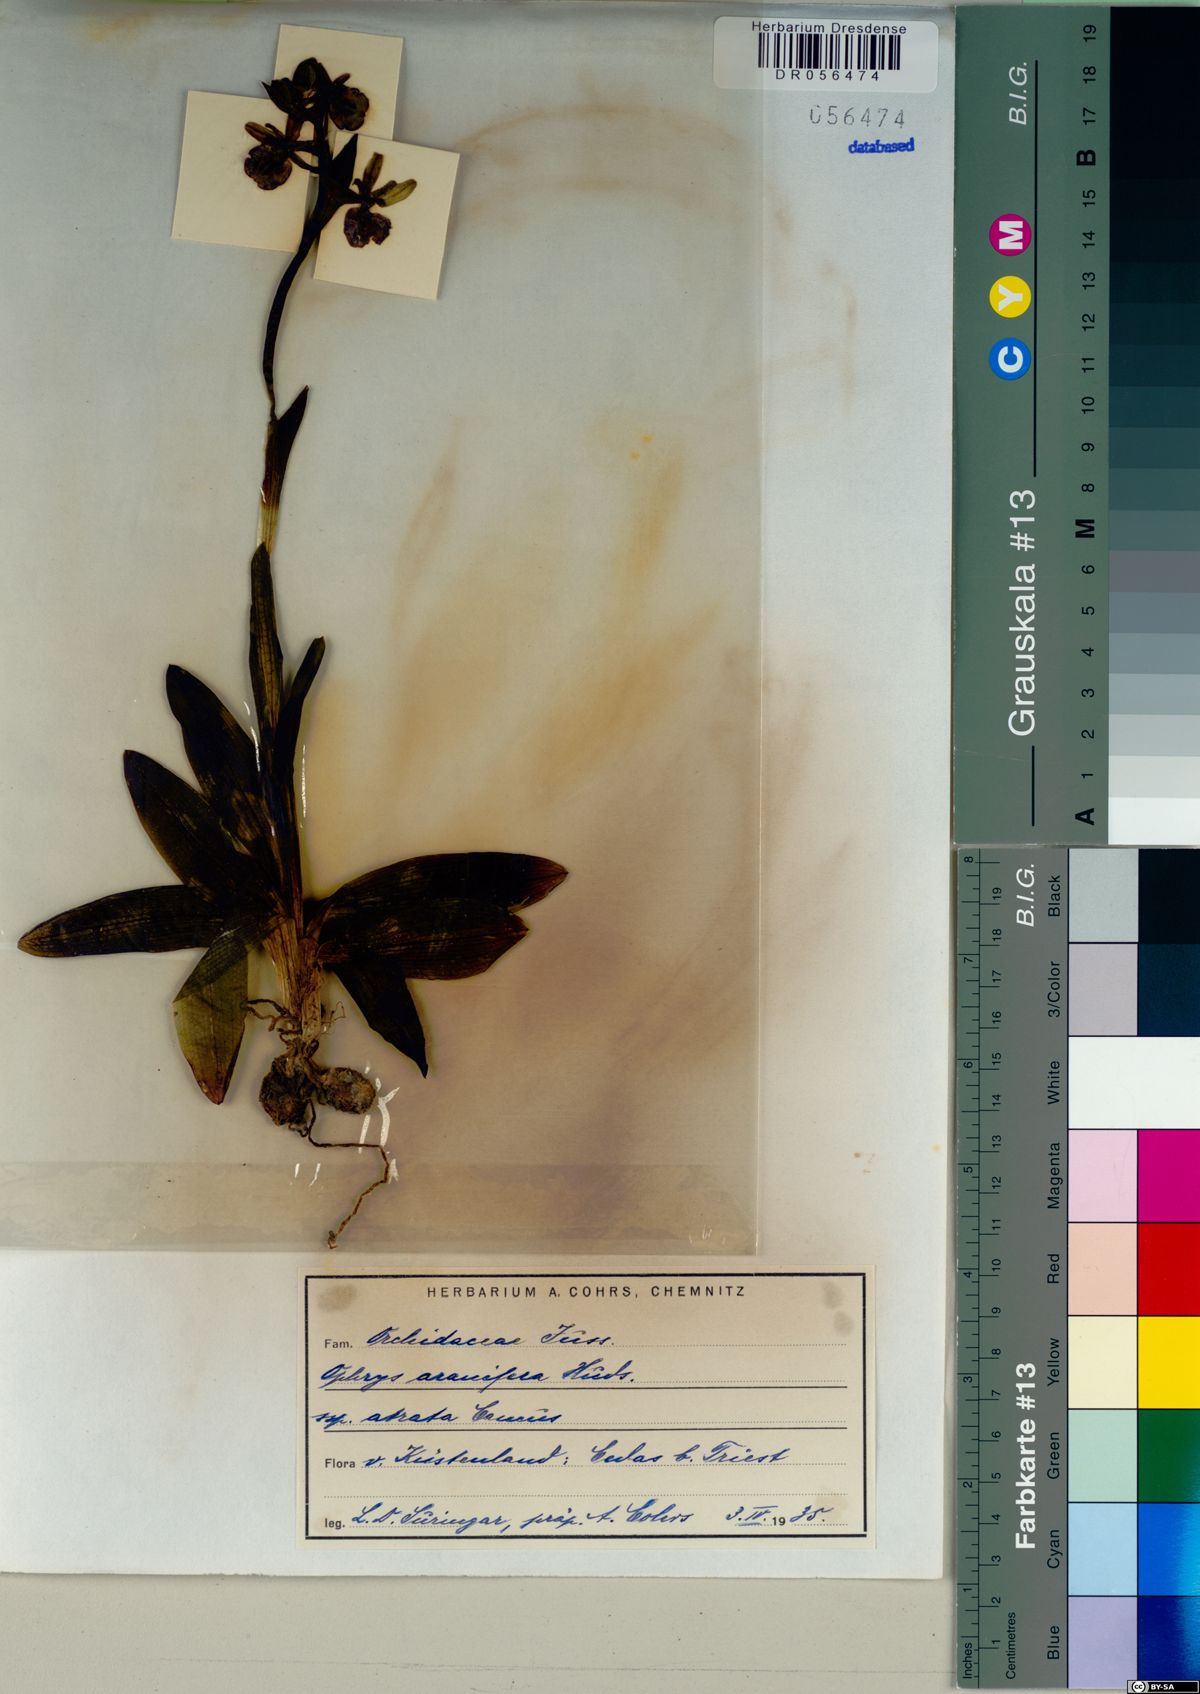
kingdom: Plantae
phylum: Tracheophyta
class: Liliopsida
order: Asparagales
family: Orchidaceae
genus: Ophrys
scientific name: Ophrys sphegodes
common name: Early spider-orchid
